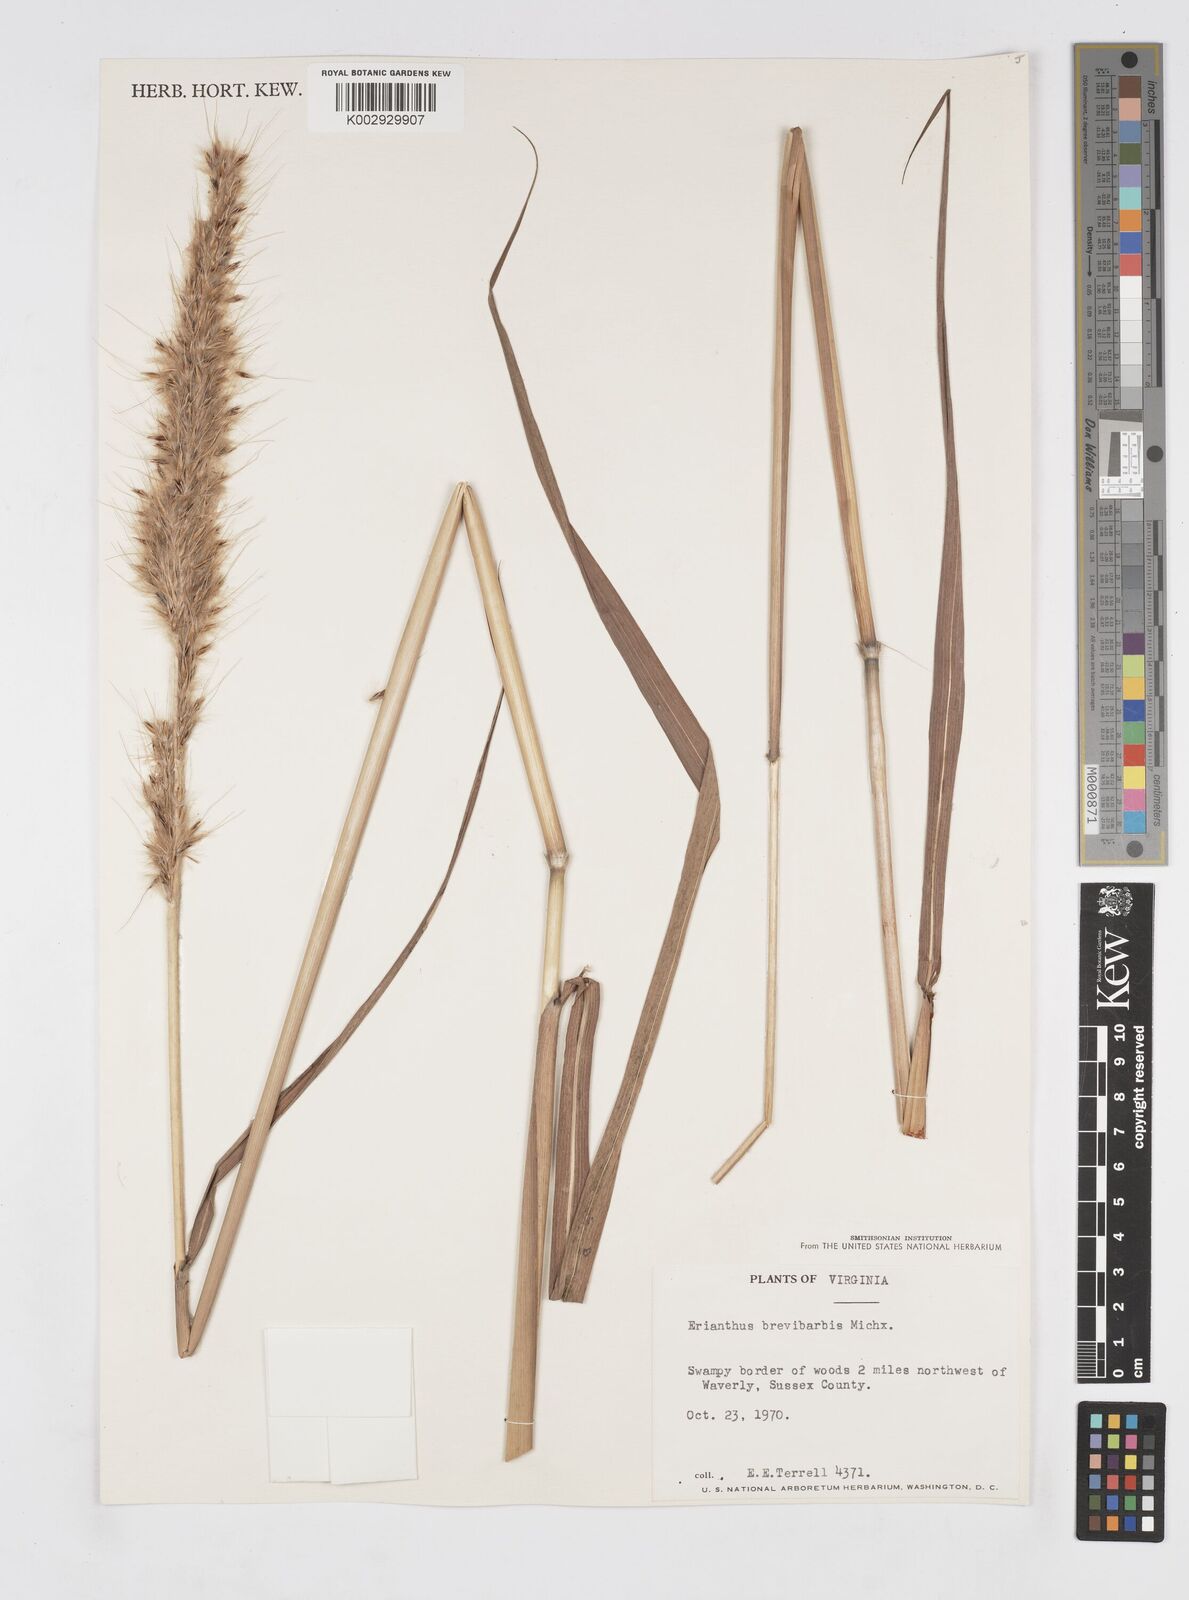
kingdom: Plantae
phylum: Tracheophyta
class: Liliopsida
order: Poales
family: Poaceae
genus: Saccharum
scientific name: Saccharum
